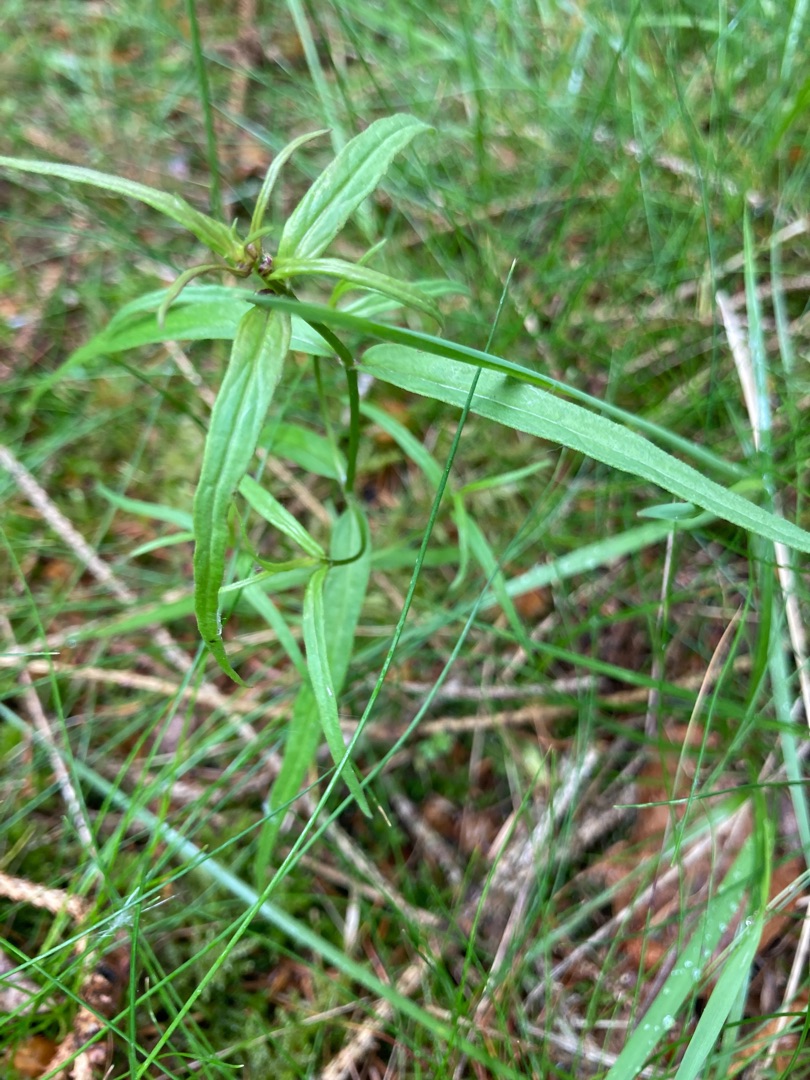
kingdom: Plantae
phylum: Tracheophyta
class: Magnoliopsida
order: Lamiales
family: Orobanchaceae
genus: Melampyrum
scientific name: Melampyrum pratense
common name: Almindelig kohvede
